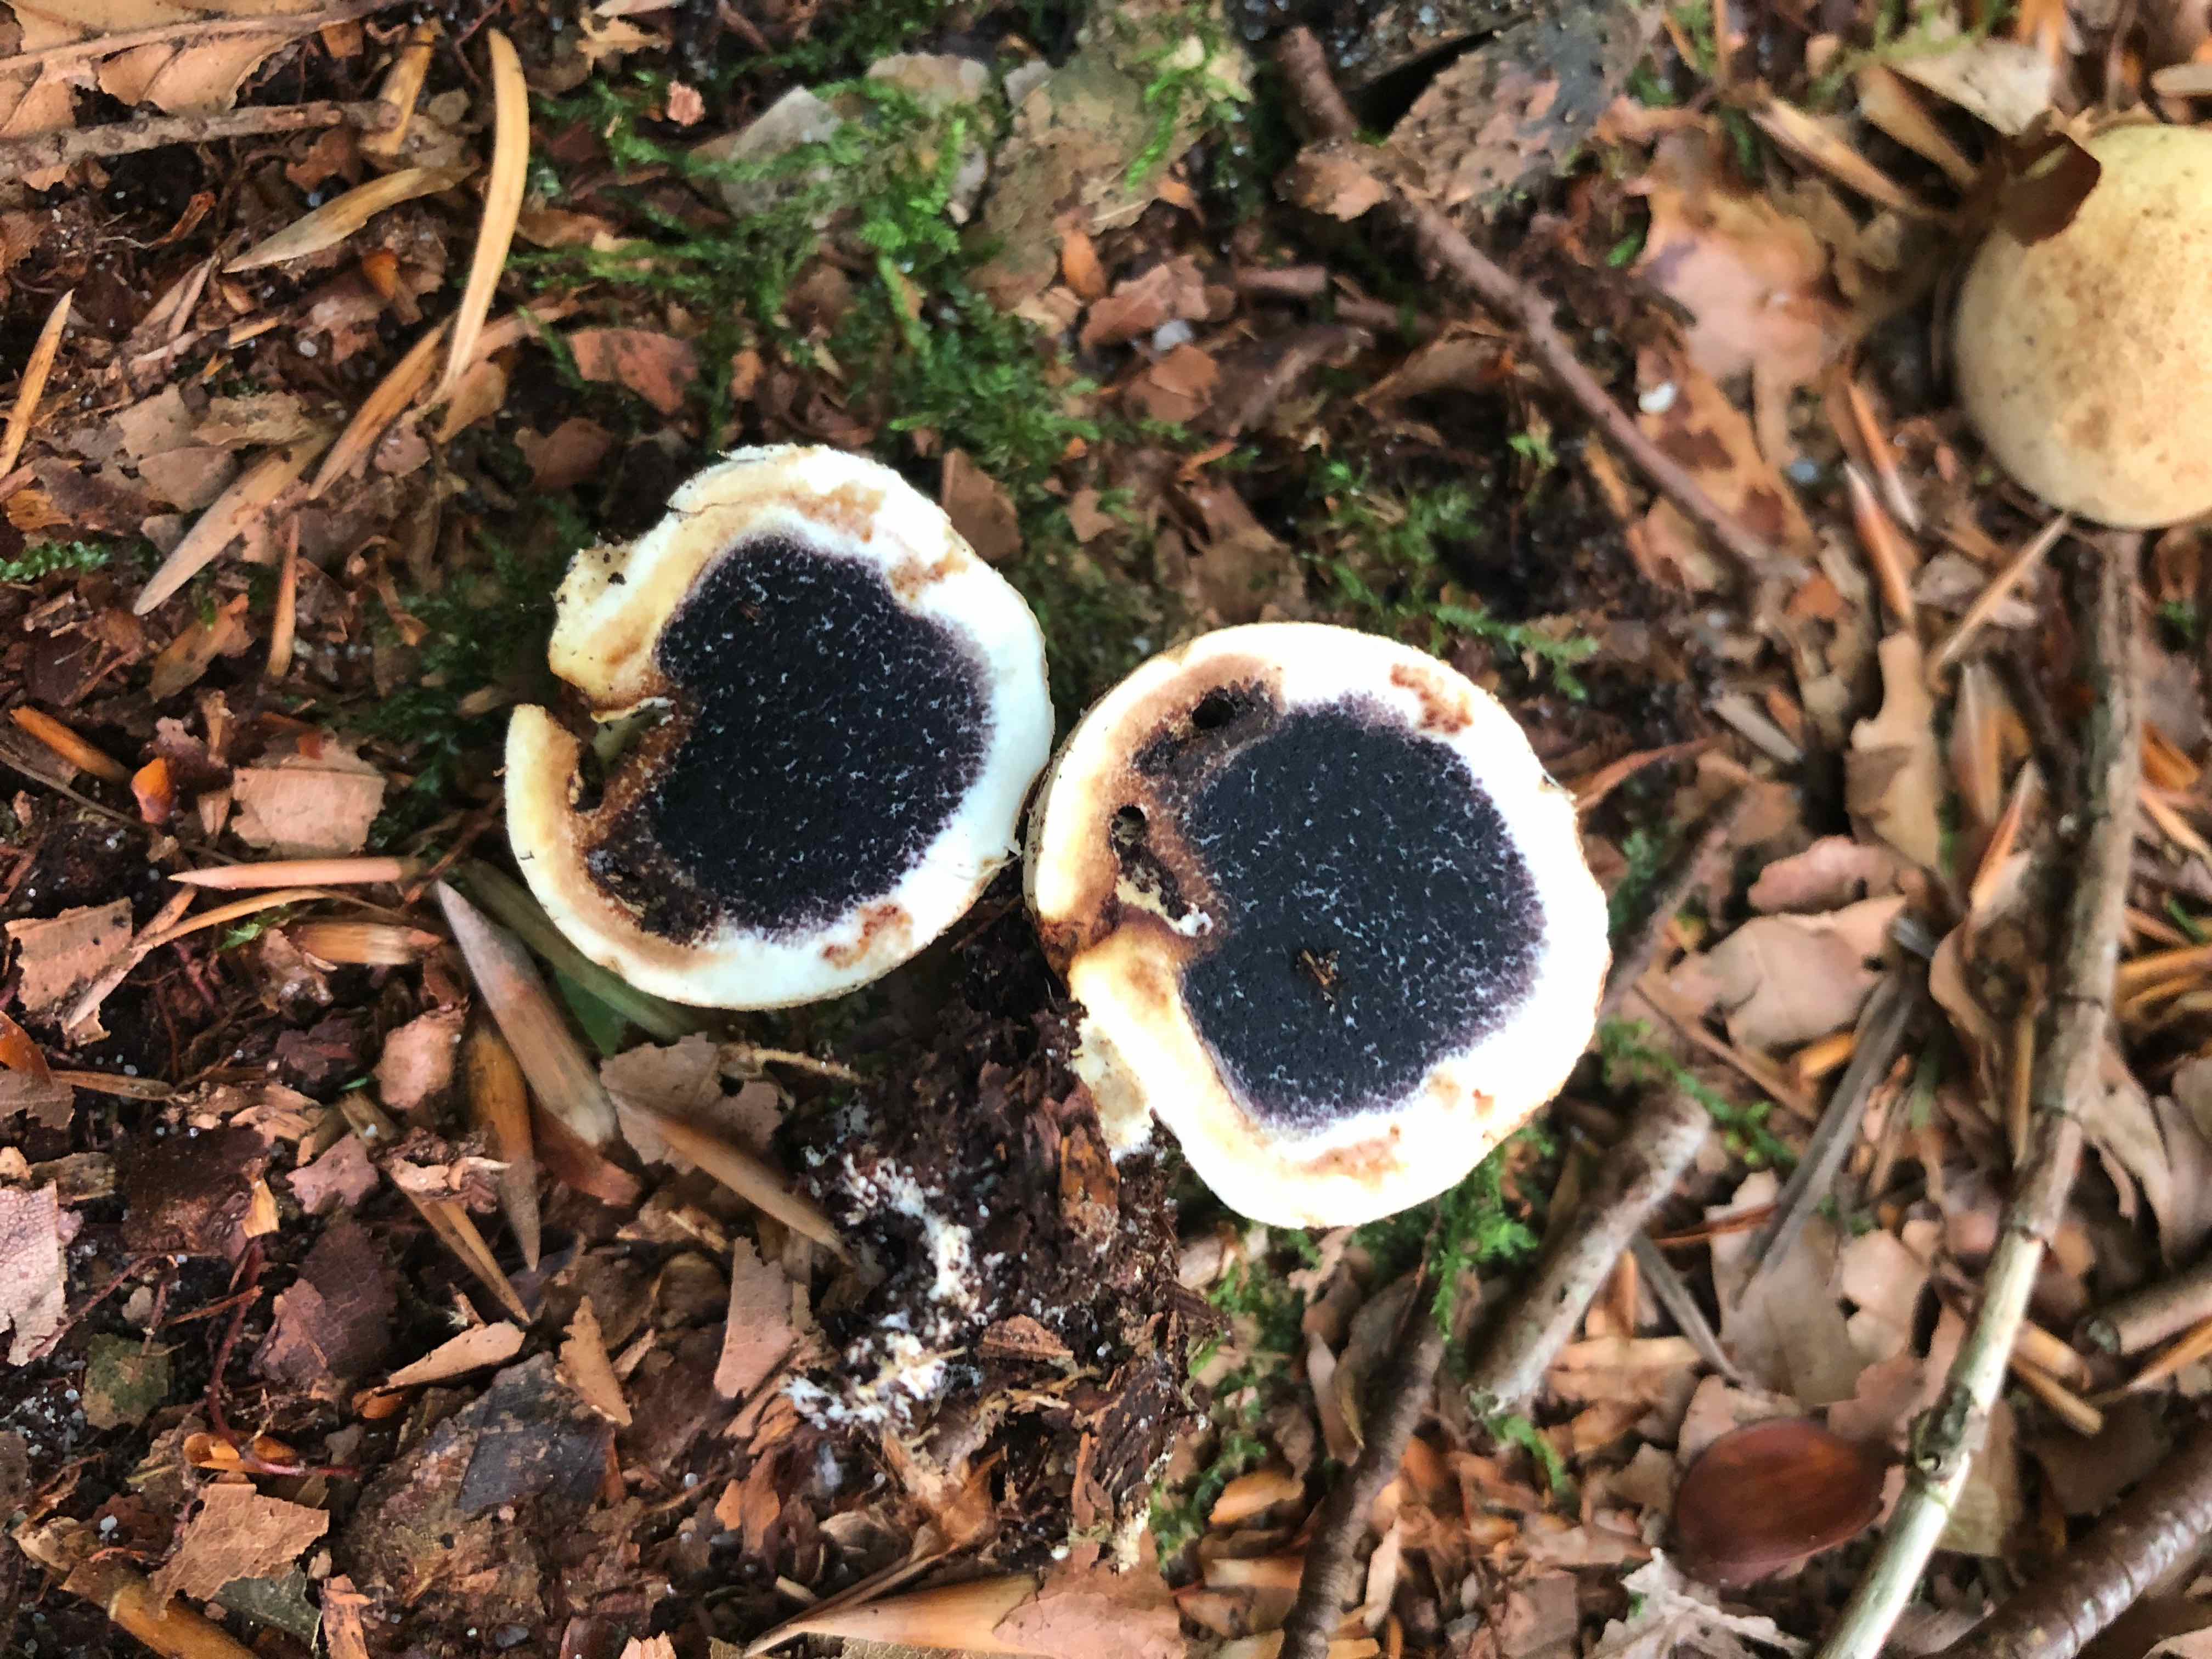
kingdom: Fungi
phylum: Basidiomycota
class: Agaricomycetes
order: Boletales
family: Sclerodermataceae
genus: Scleroderma
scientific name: Scleroderma citrinum
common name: almindelig bruskbold
